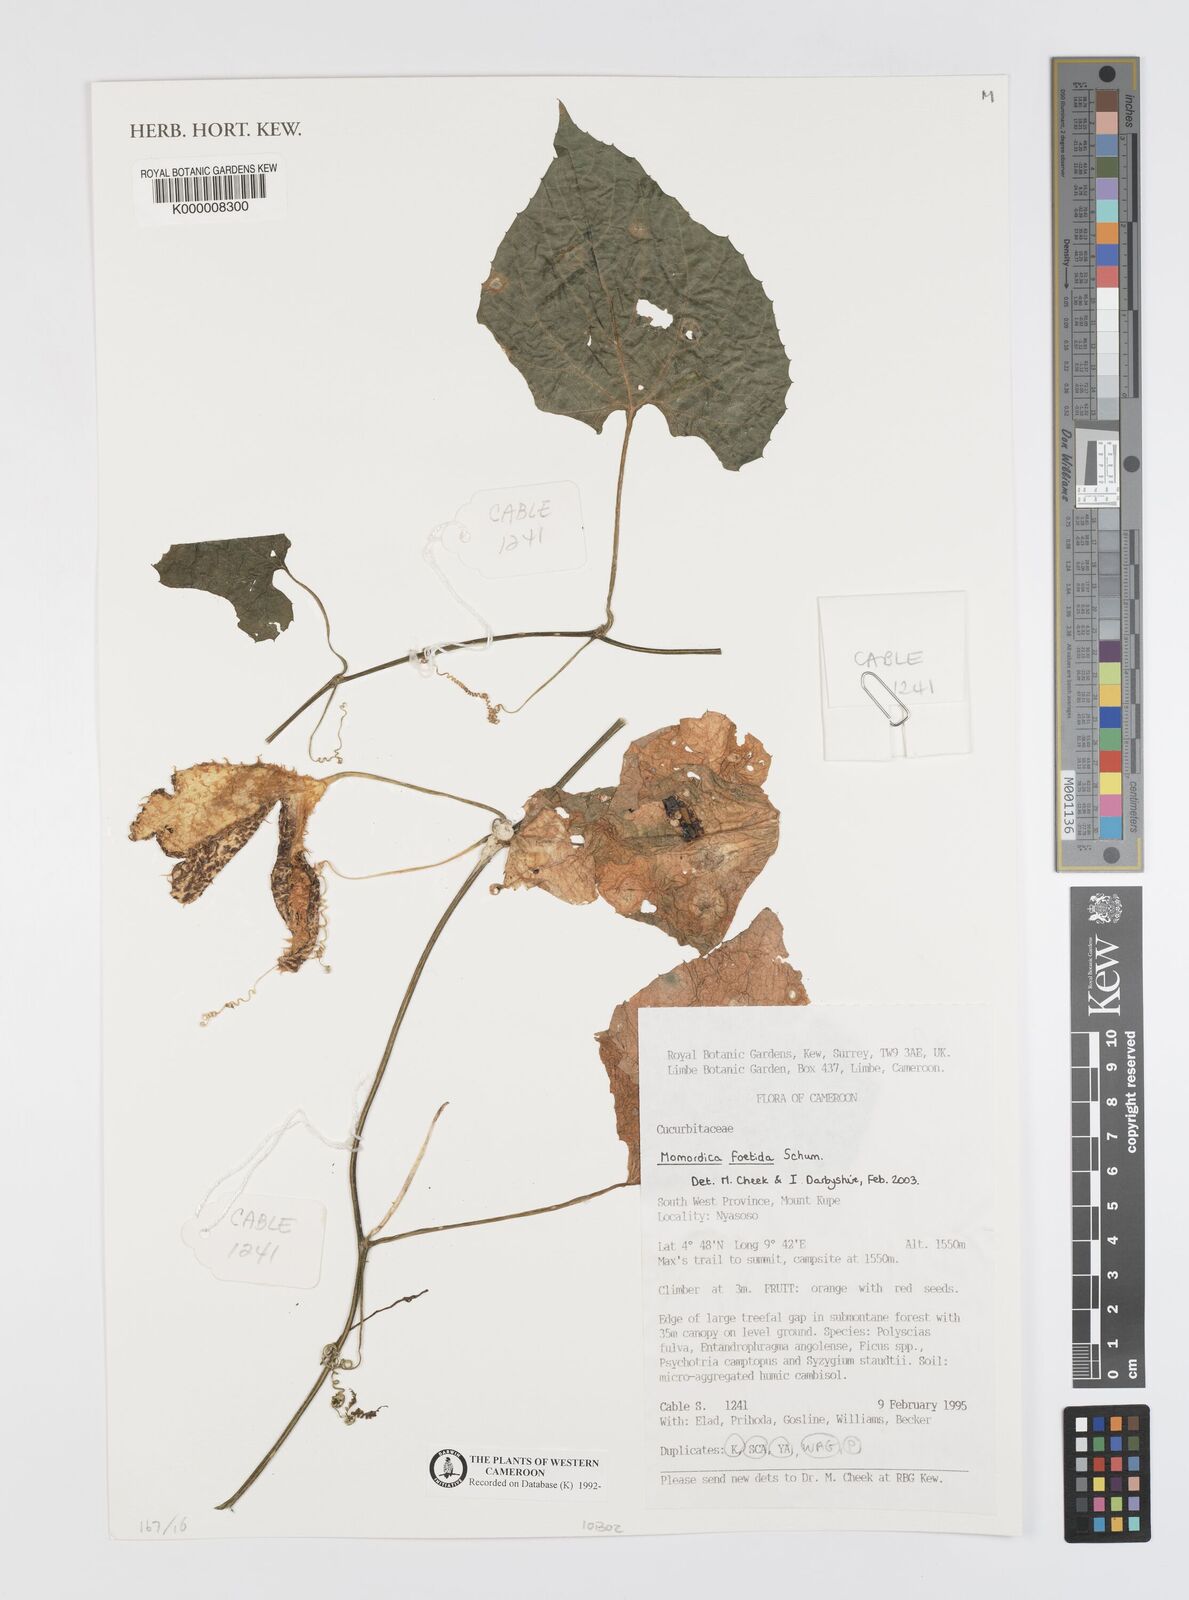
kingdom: Plantae
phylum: Tracheophyta
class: Magnoliopsida
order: Cucurbitales
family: Cucurbitaceae
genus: Momordica
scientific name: Momordica foetida
